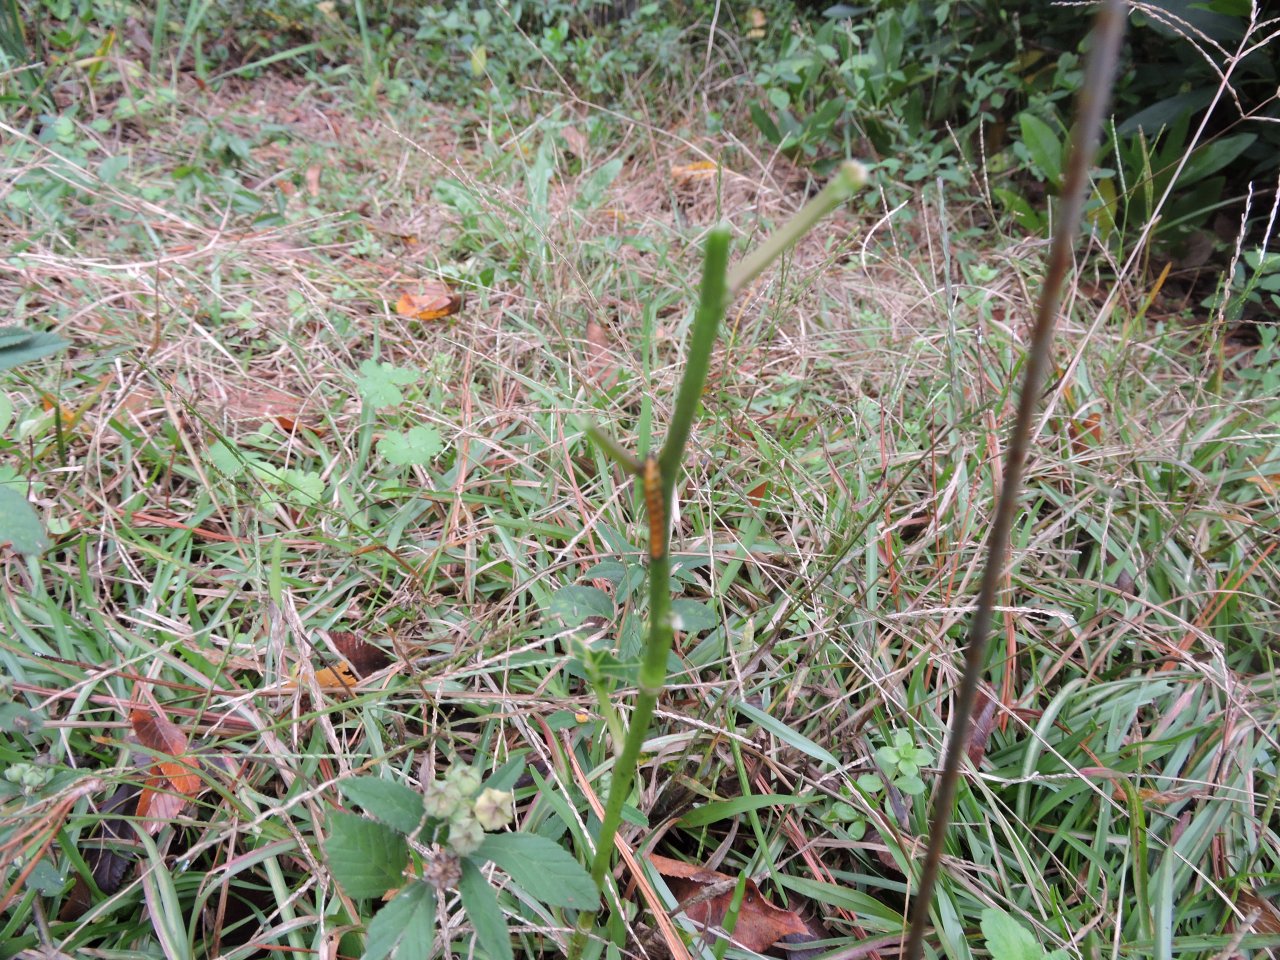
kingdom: Animalia
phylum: Arthropoda
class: Insecta
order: Lepidoptera
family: Nymphalidae
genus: Dione
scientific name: Dione vanillae
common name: Gulf Fritillary
